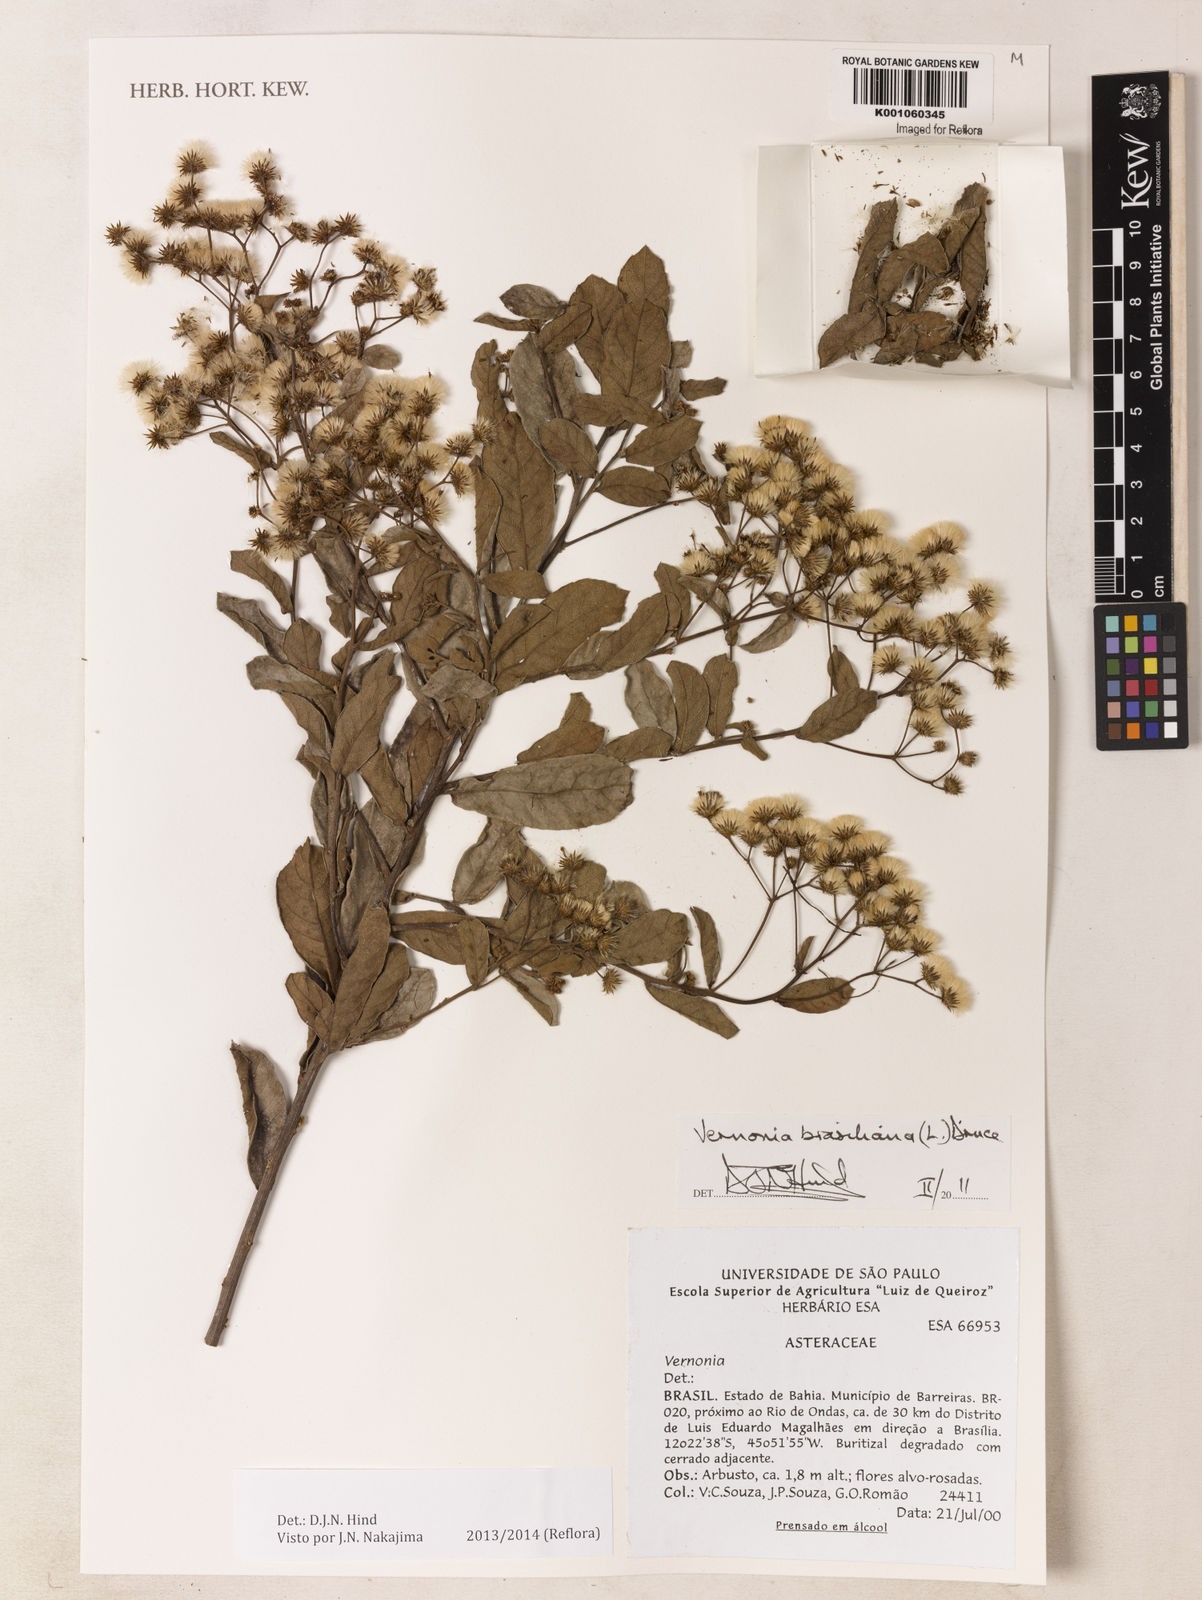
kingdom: Plantae
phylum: Tracheophyta
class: Magnoliopsida
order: Asterales
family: Asteraceae
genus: Vernonanthura
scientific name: Vernonanthura brasiliana
